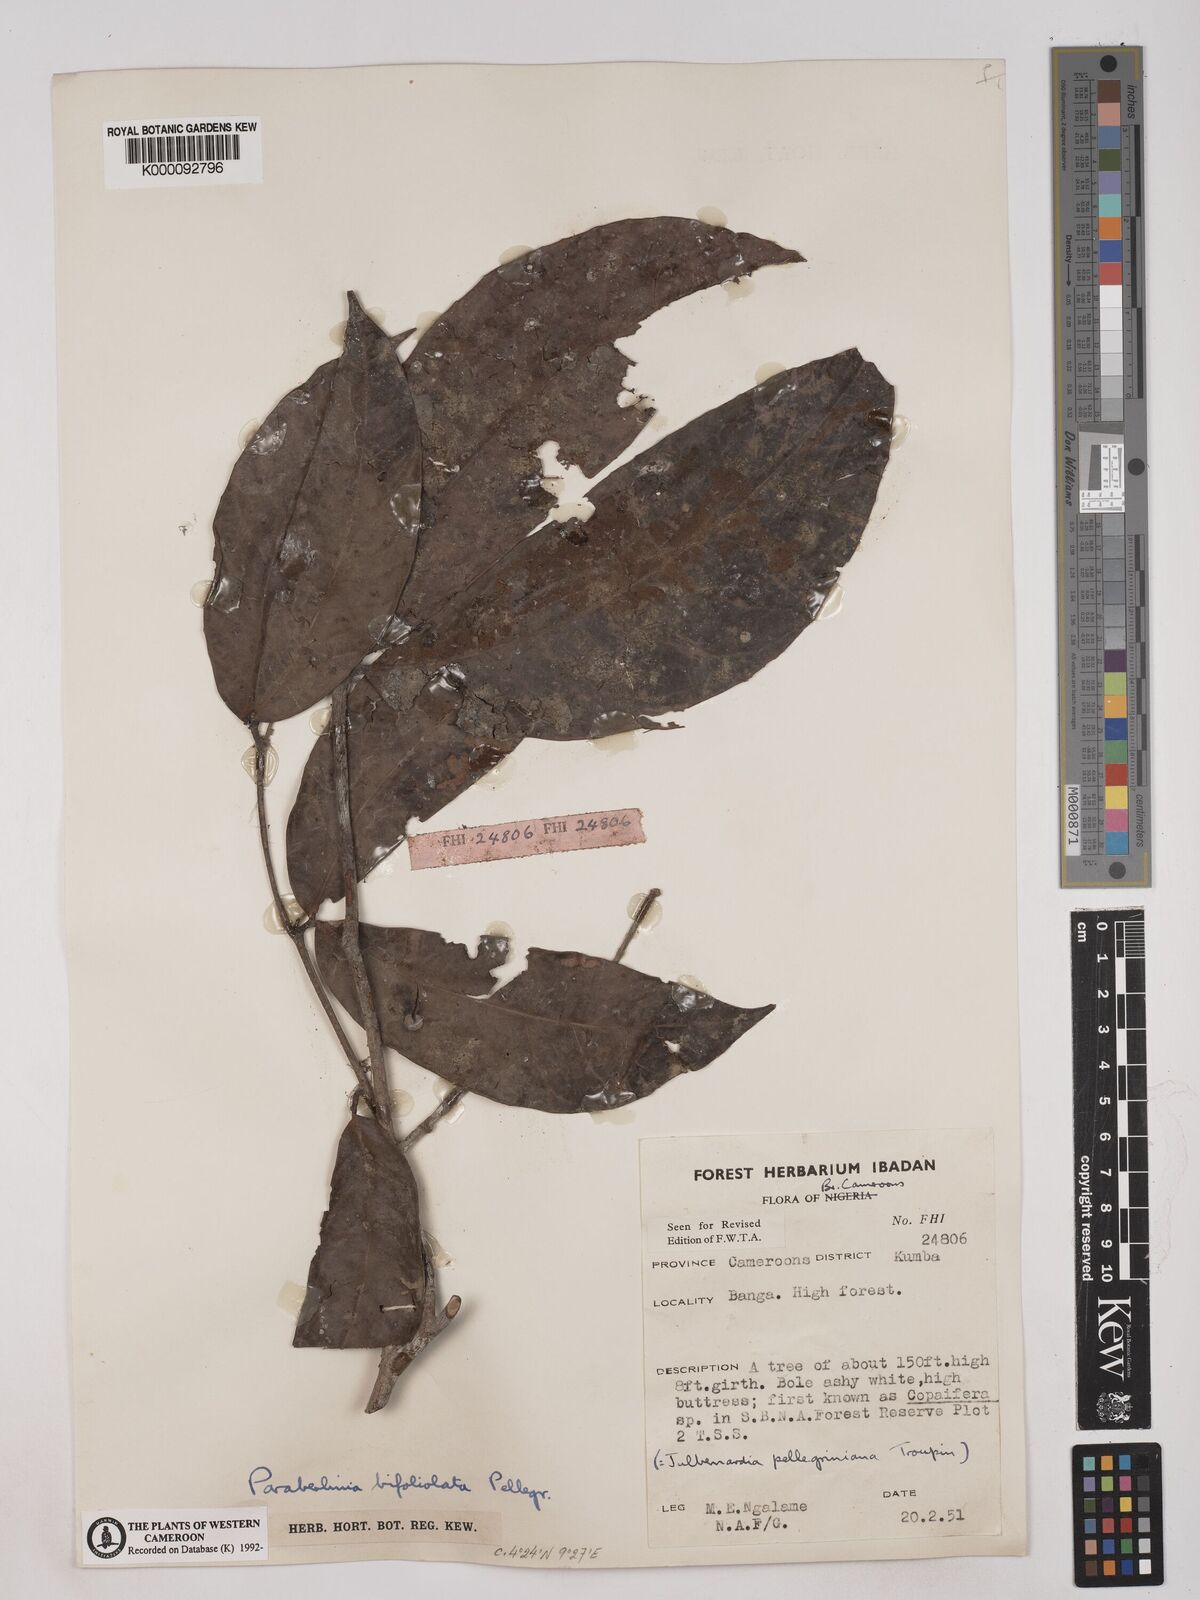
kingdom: Plantae
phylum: Tracheophyta
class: Magnoliopsida
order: Fabales
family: Fabaceae
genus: Julbernardia
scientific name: Julbernardia pellegriniana
